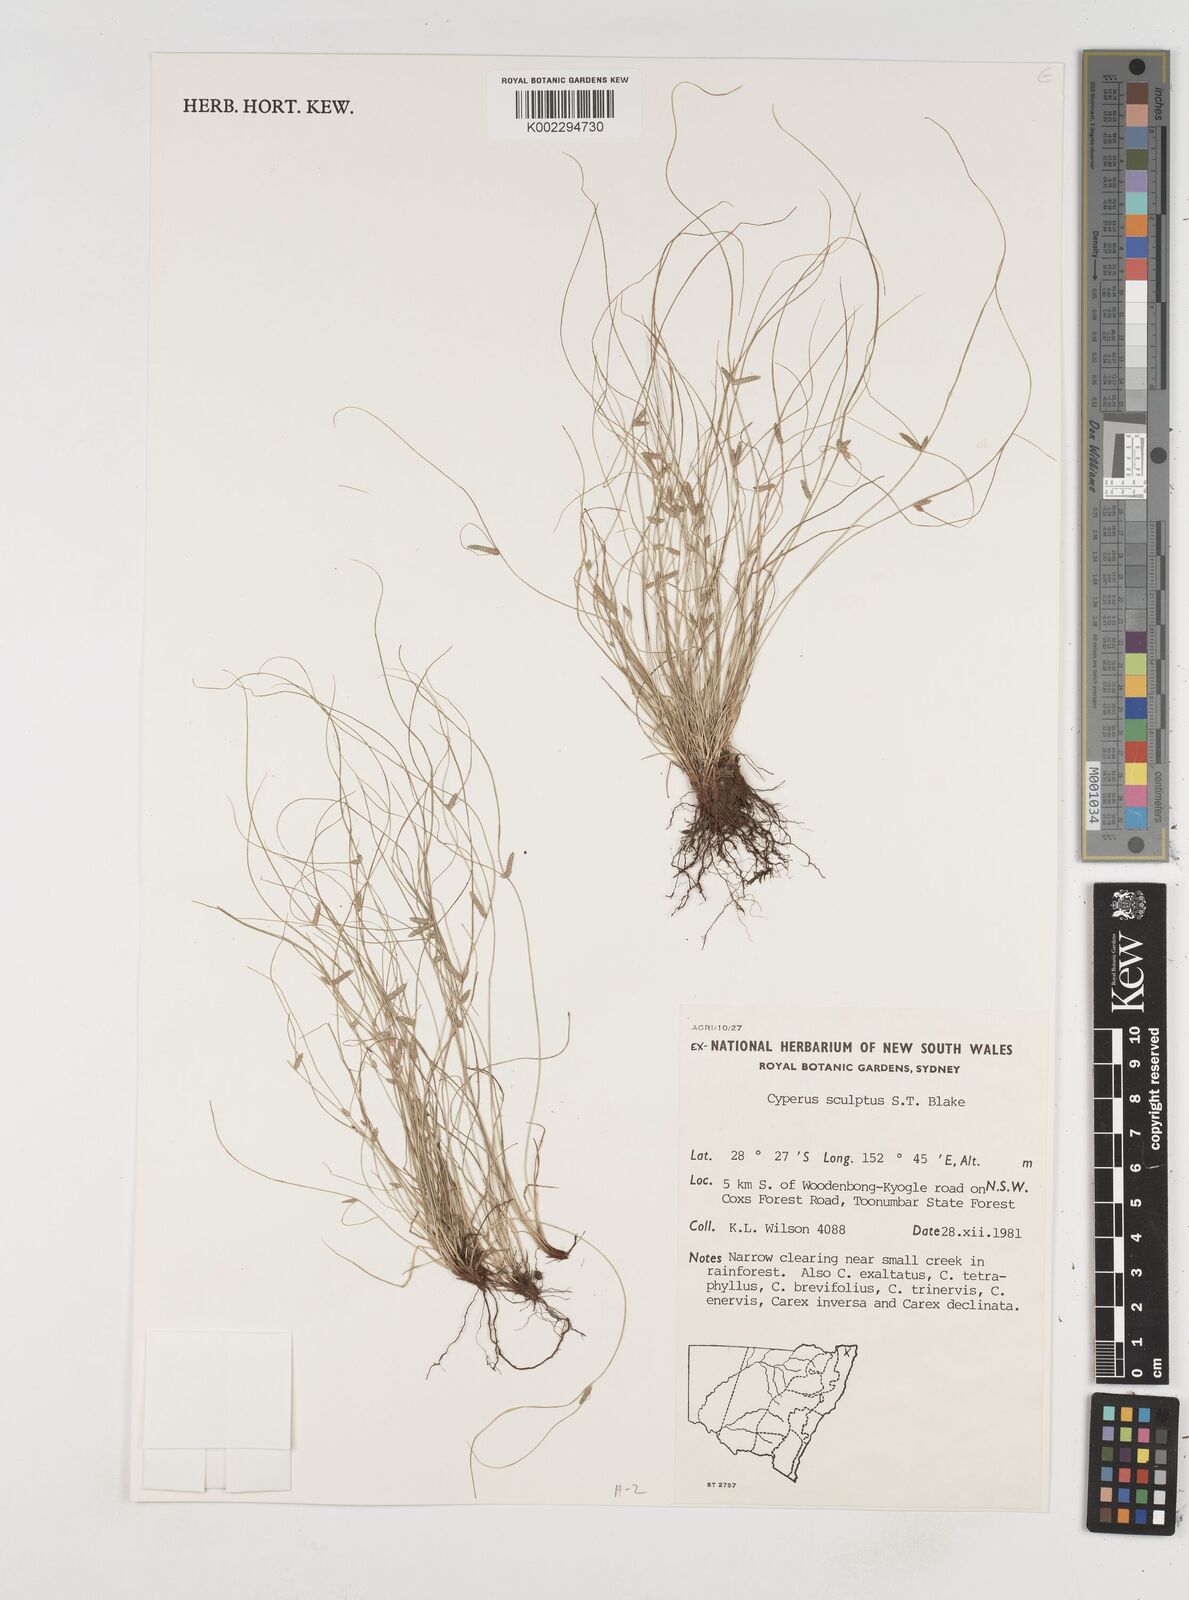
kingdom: Plantae
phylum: Tracheophyta
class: Liliopsida
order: Poales
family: Cyperaceae
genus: Cyperus
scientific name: Cyperus sculptus
